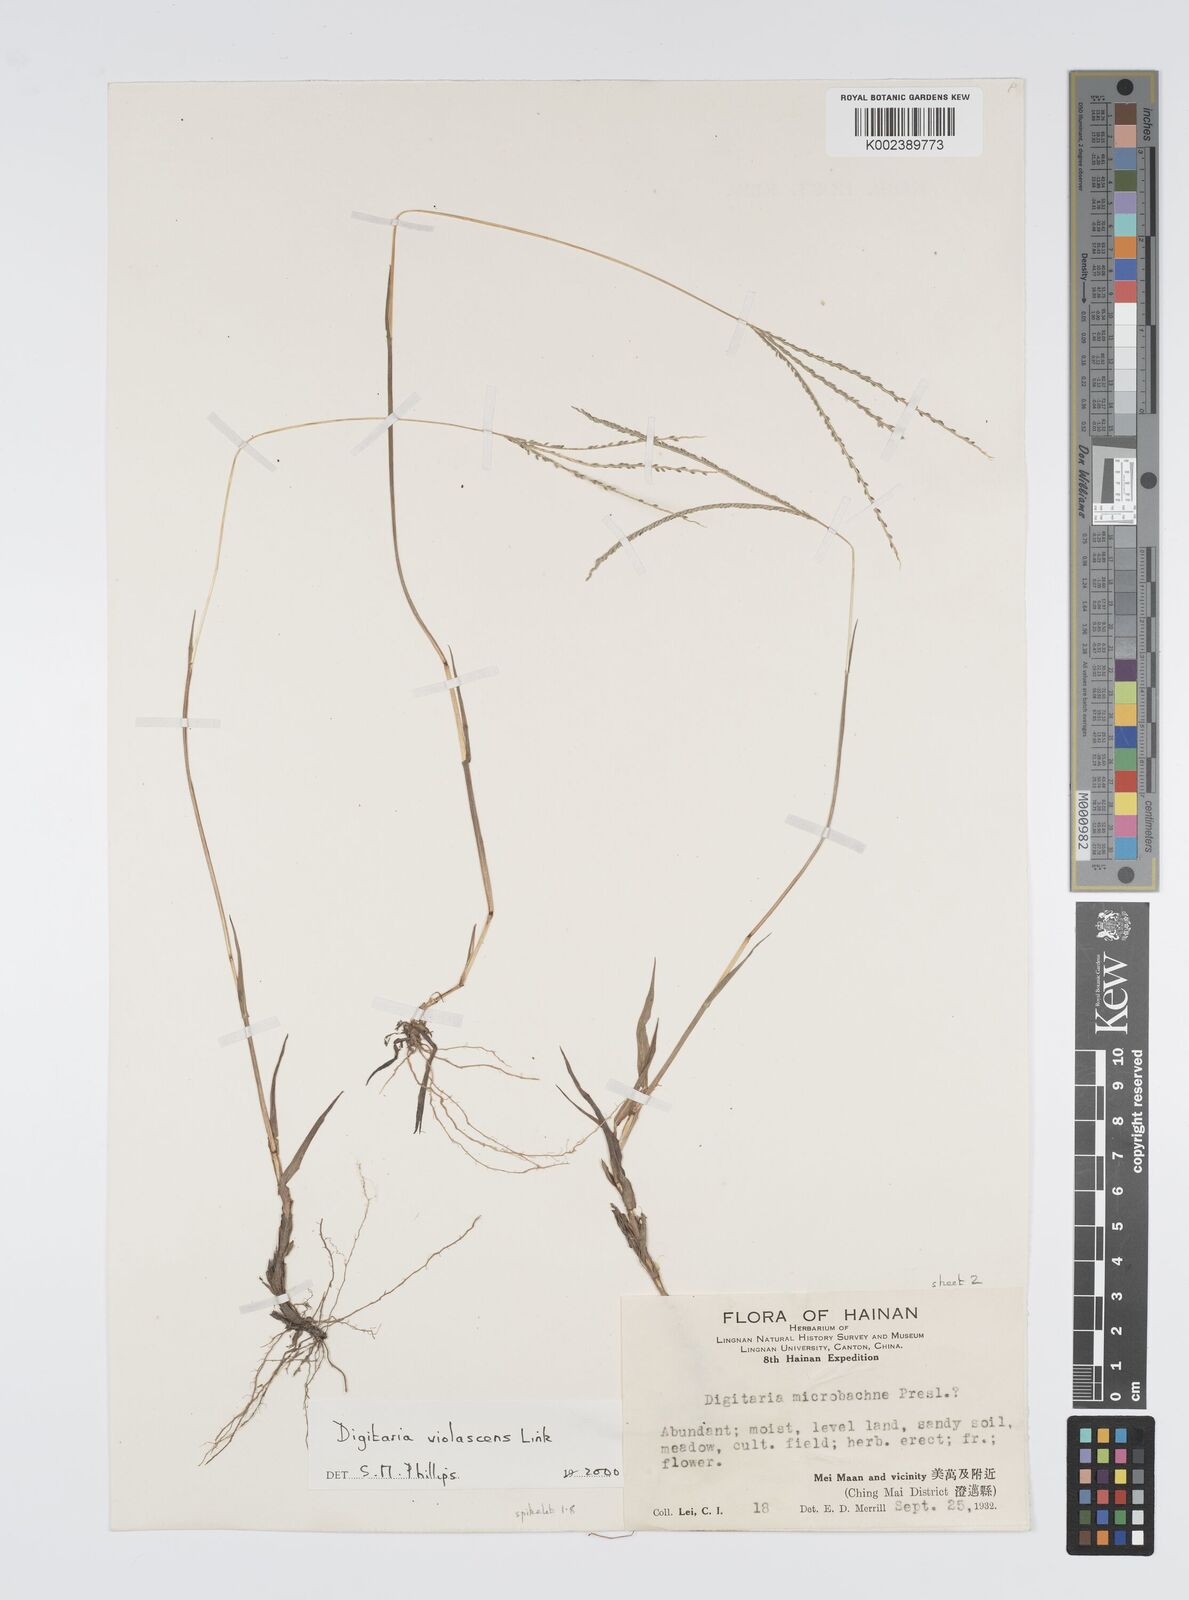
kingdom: Plantae
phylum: Tracheophyta
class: Liliopsida
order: Poales
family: Poaceae
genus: Digitaria
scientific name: Digitaria violascens
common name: Violet crabgrass
